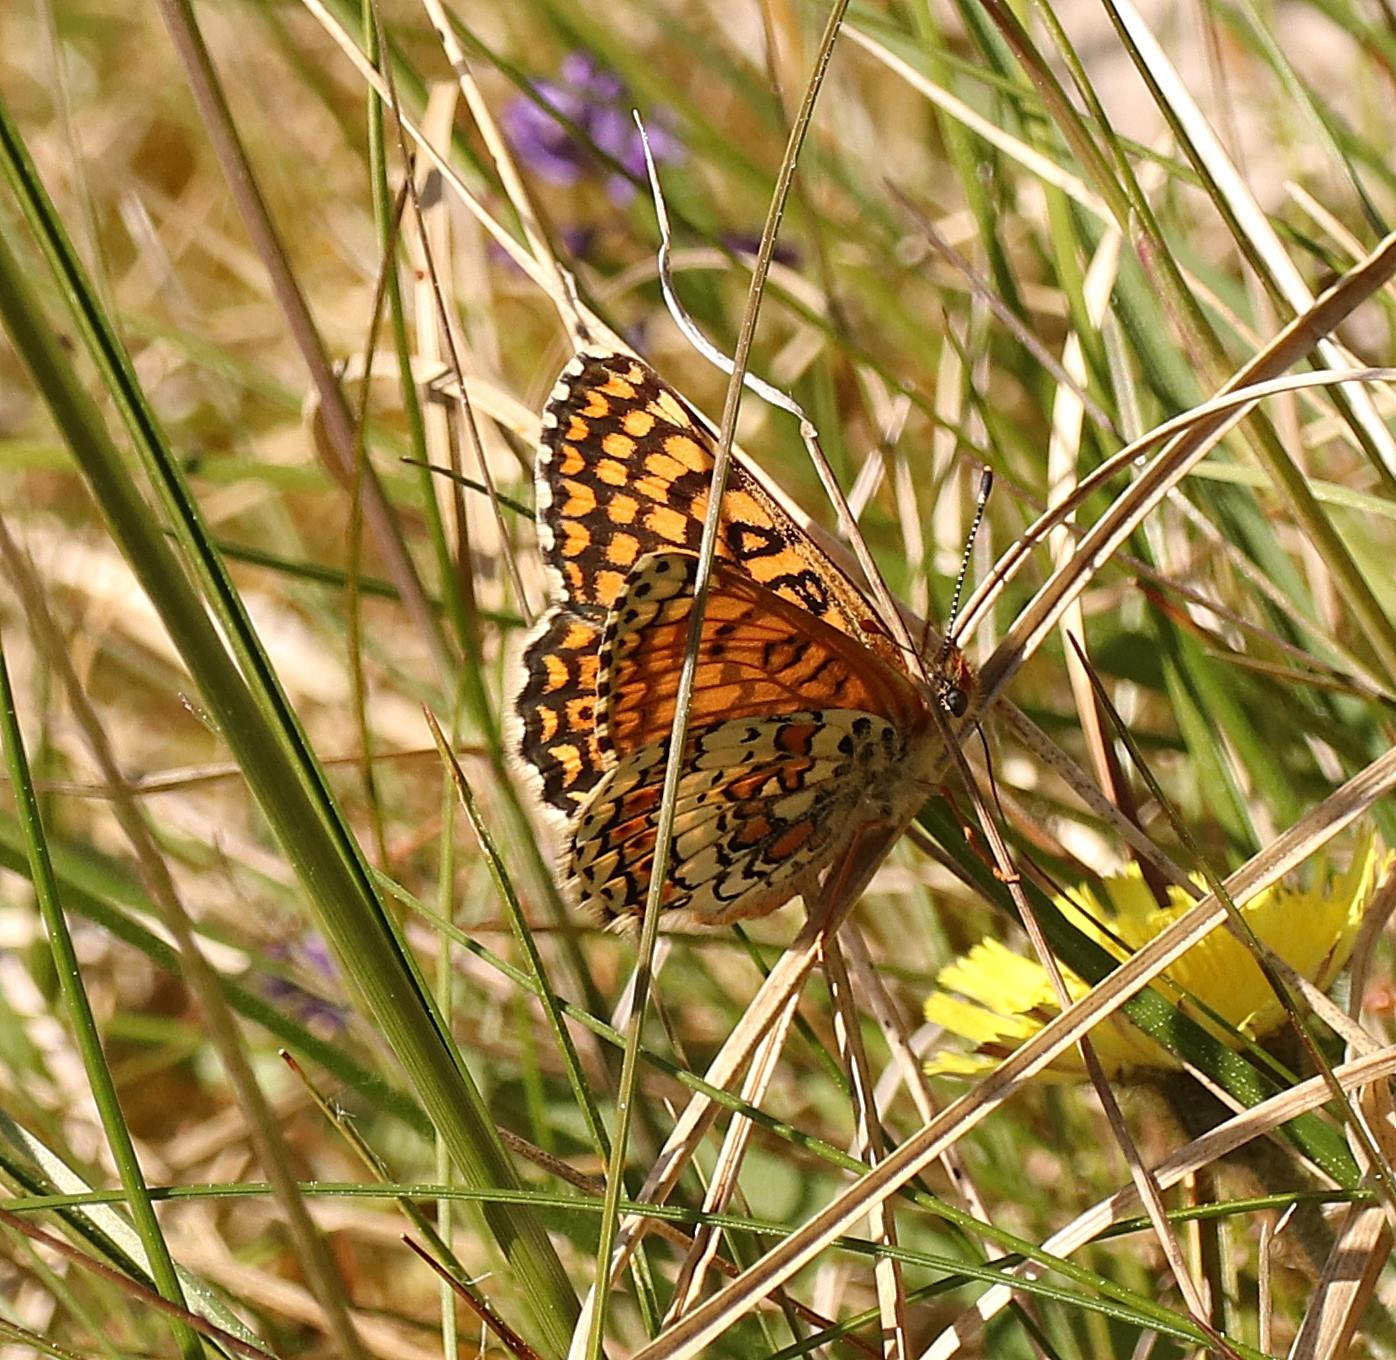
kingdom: Animalia
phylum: Arthropoda
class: Insecta
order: Lepidoptera
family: Nymphalidae
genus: Melitaea
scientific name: Melitaea cinxia
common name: Okkergul pletvinge
